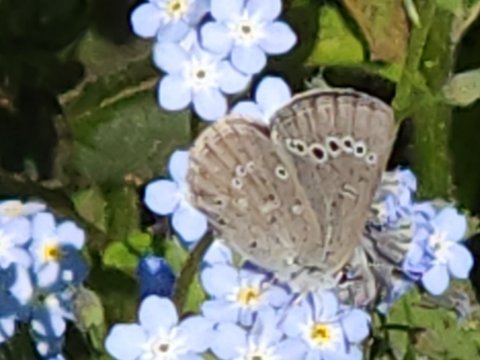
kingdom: Animalia
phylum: Arthropoda
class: Insecta
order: Lepidoptera
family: Lycaenidae
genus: Glaucopsyche
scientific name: Glaucopsyche lygdamus
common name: Silvery Blue
